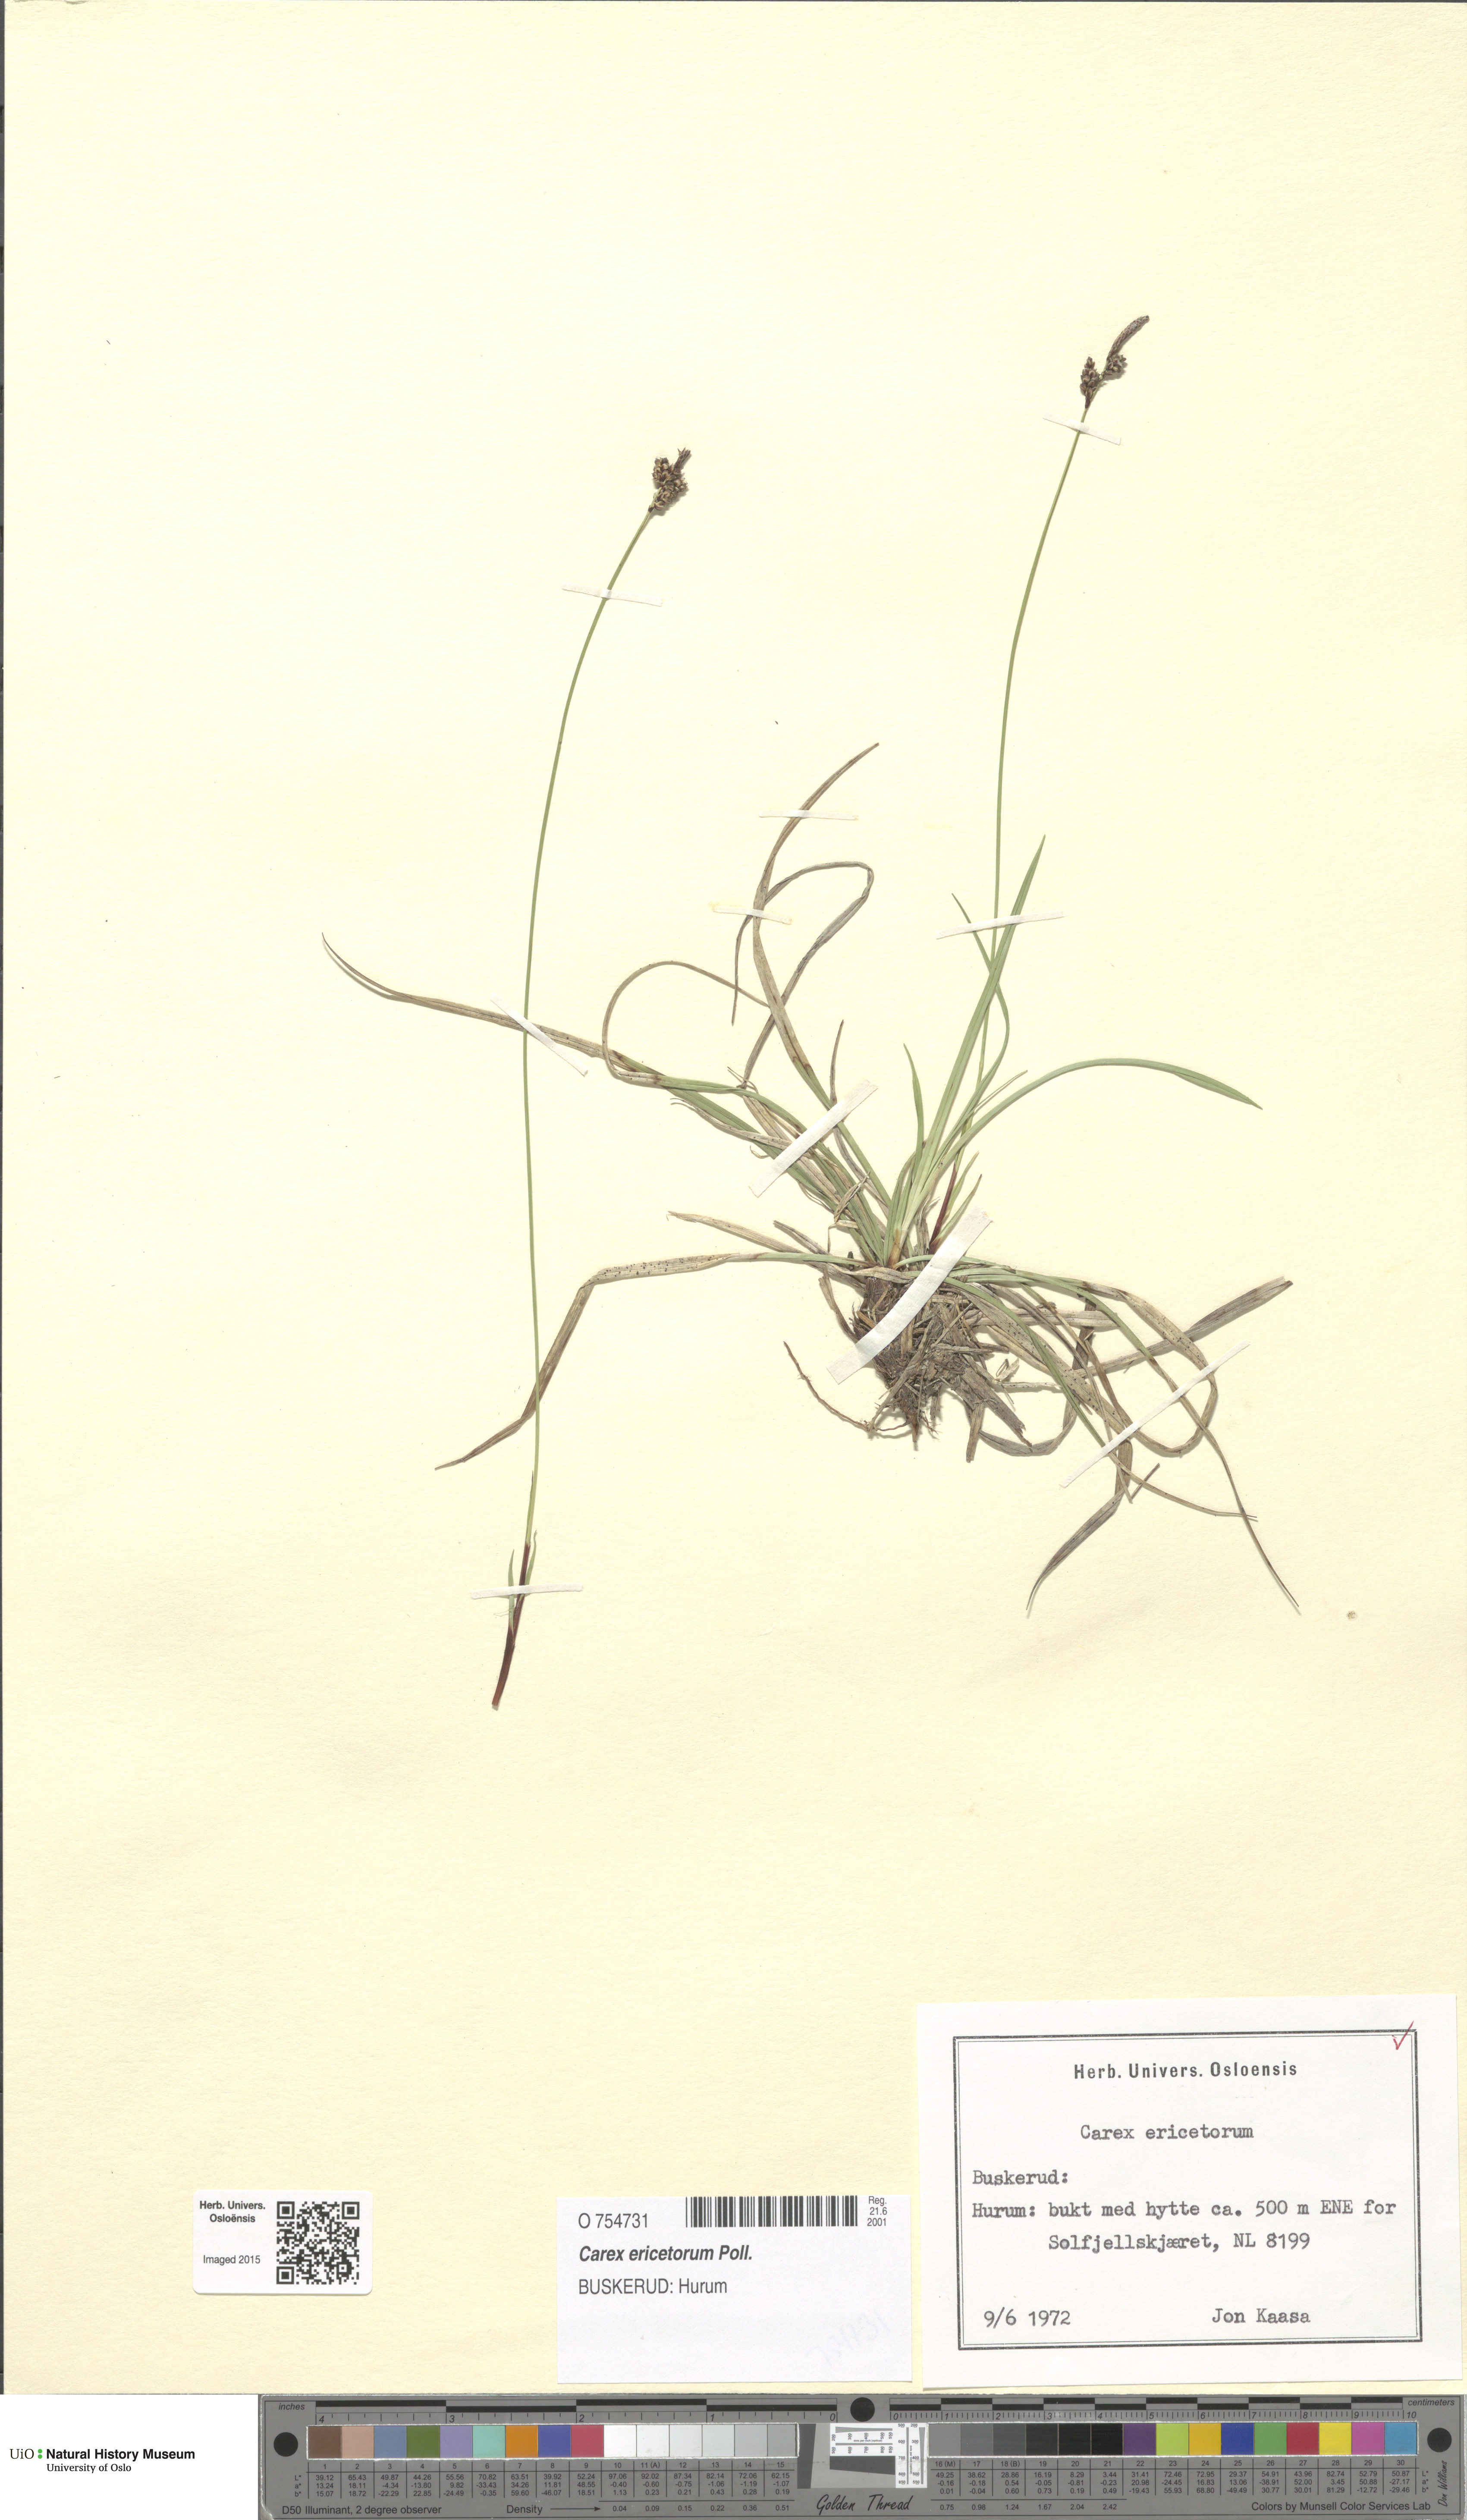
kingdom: Plantae
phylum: Tracheophyta
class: Liliopsida
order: Poales
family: Cyperaceae
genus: Carex
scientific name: Carex ericetorum
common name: Rare spring-sedge
